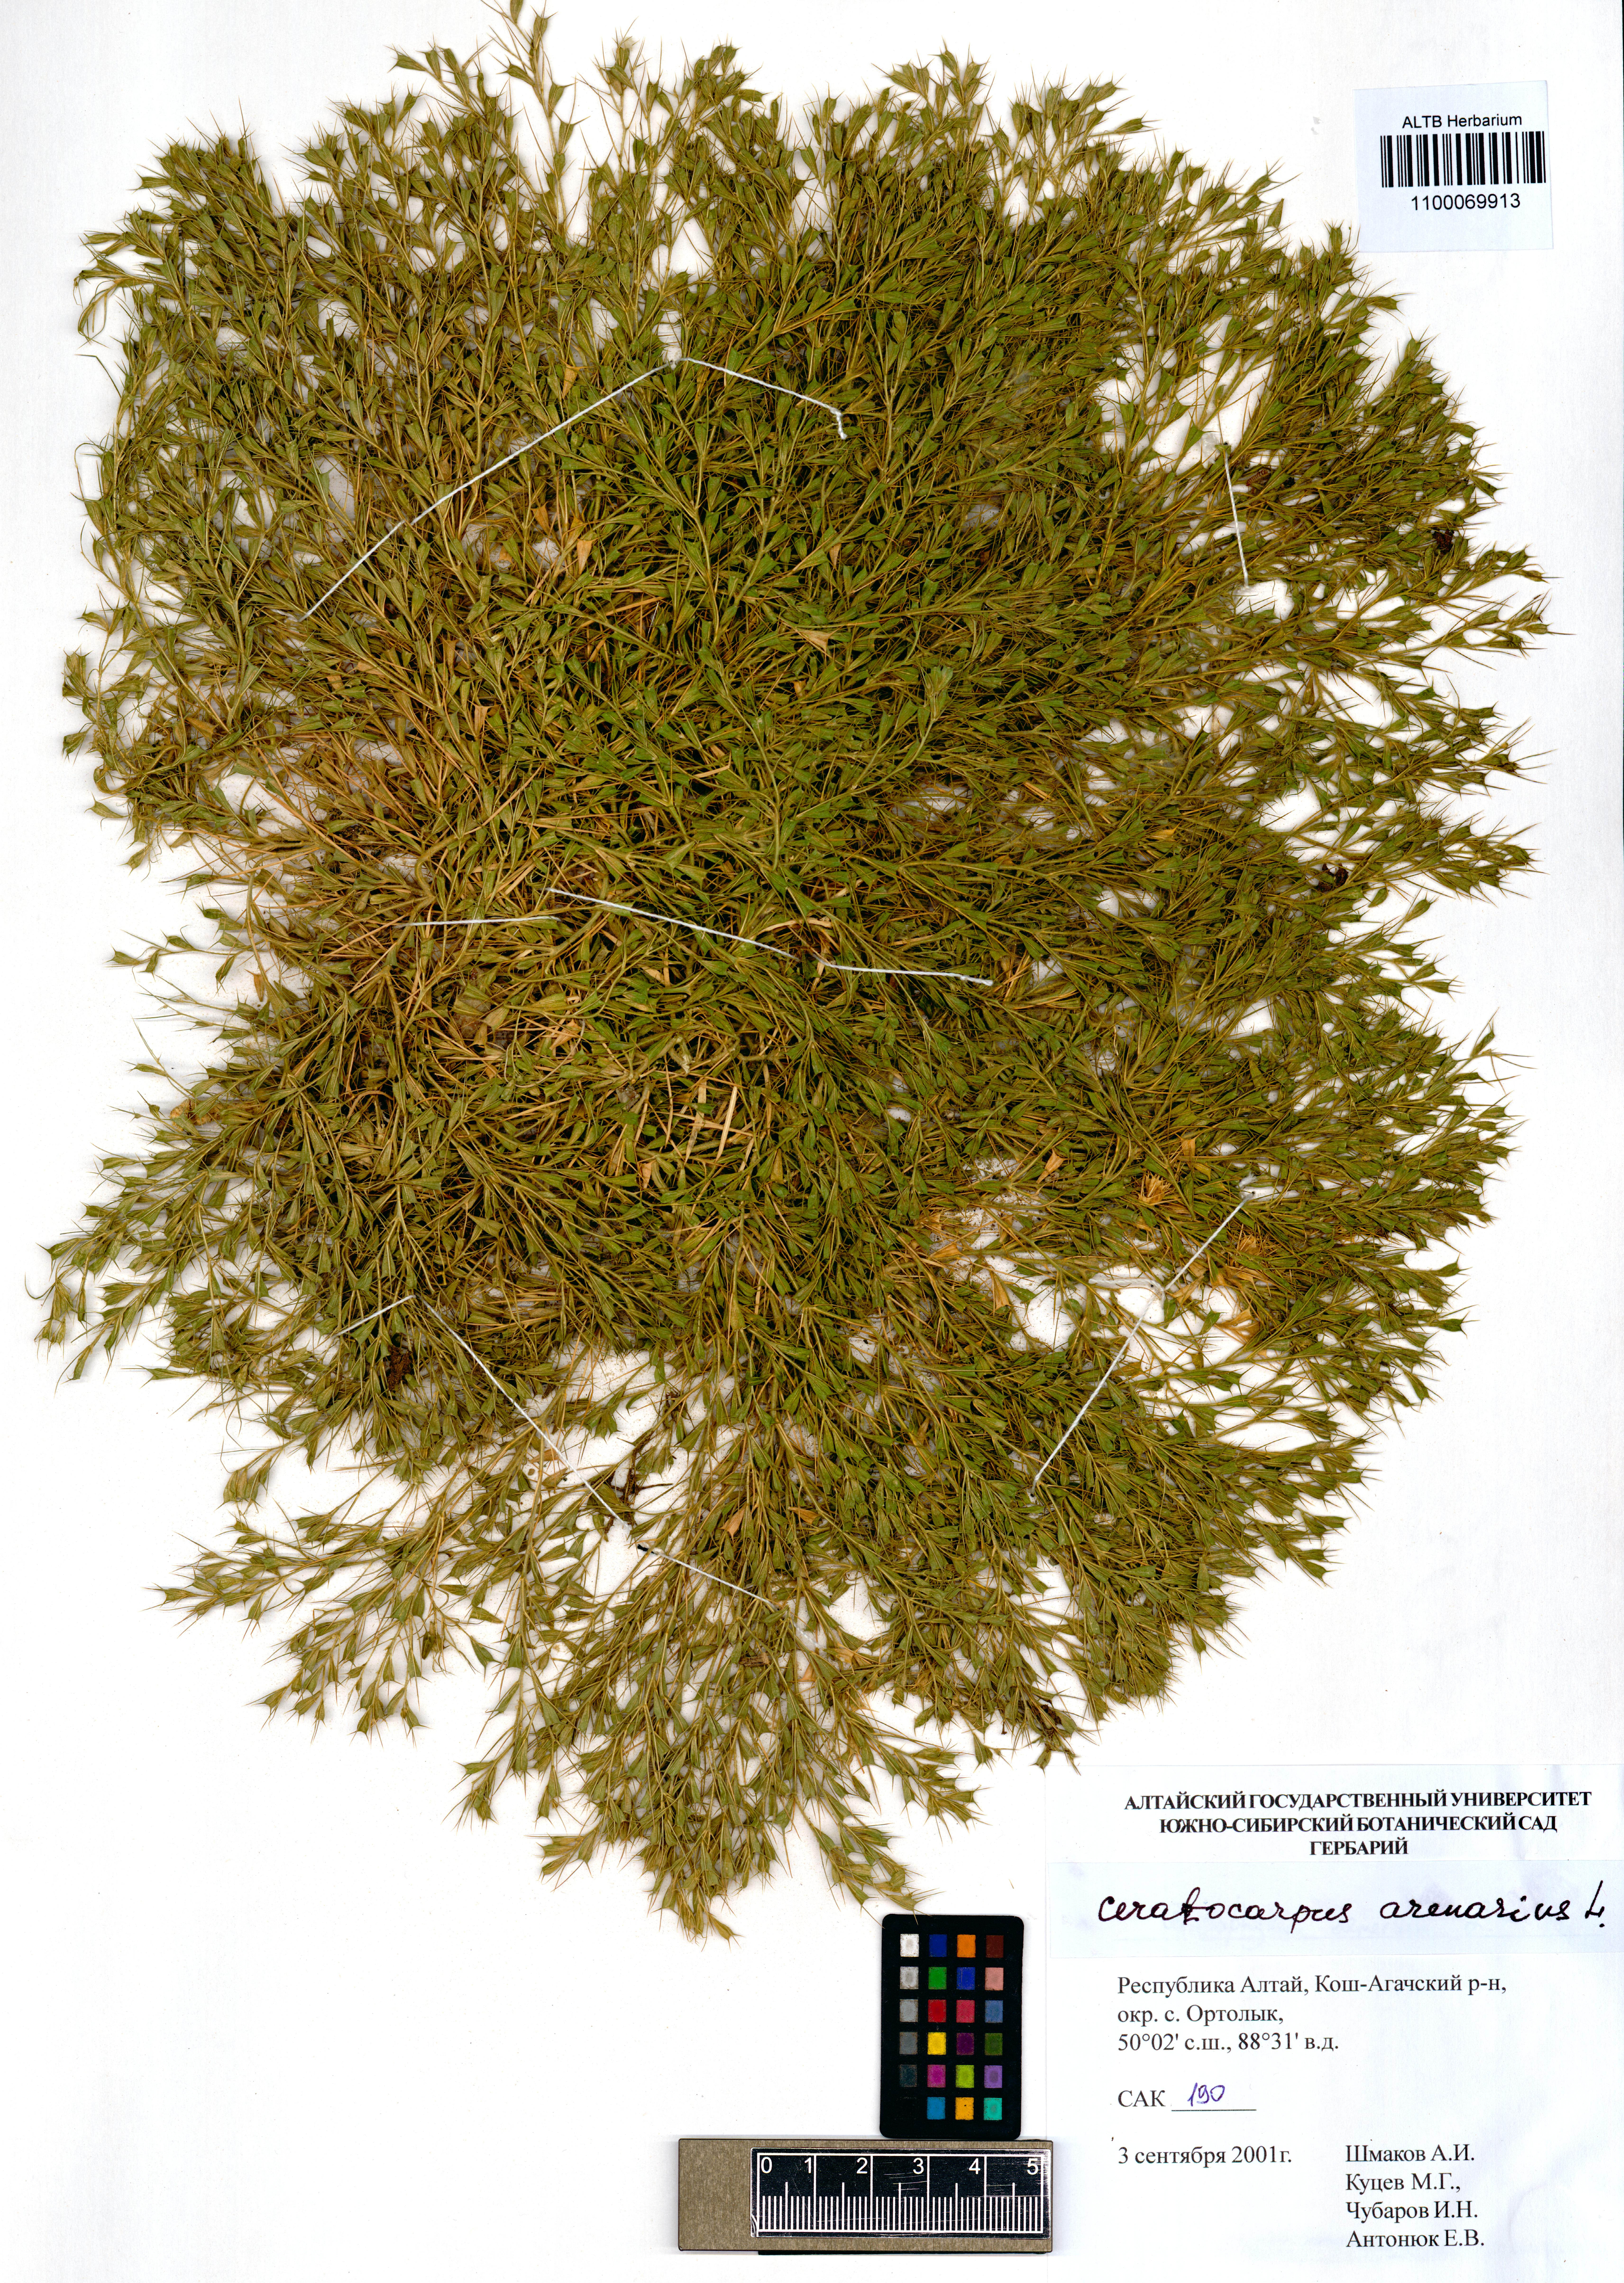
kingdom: Plantae
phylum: Tracheophyta
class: Magnoliopsida
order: Caryophyllales
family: Amaranthaceae
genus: Ceratocarpus
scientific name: Ceratocarpus arenarius
